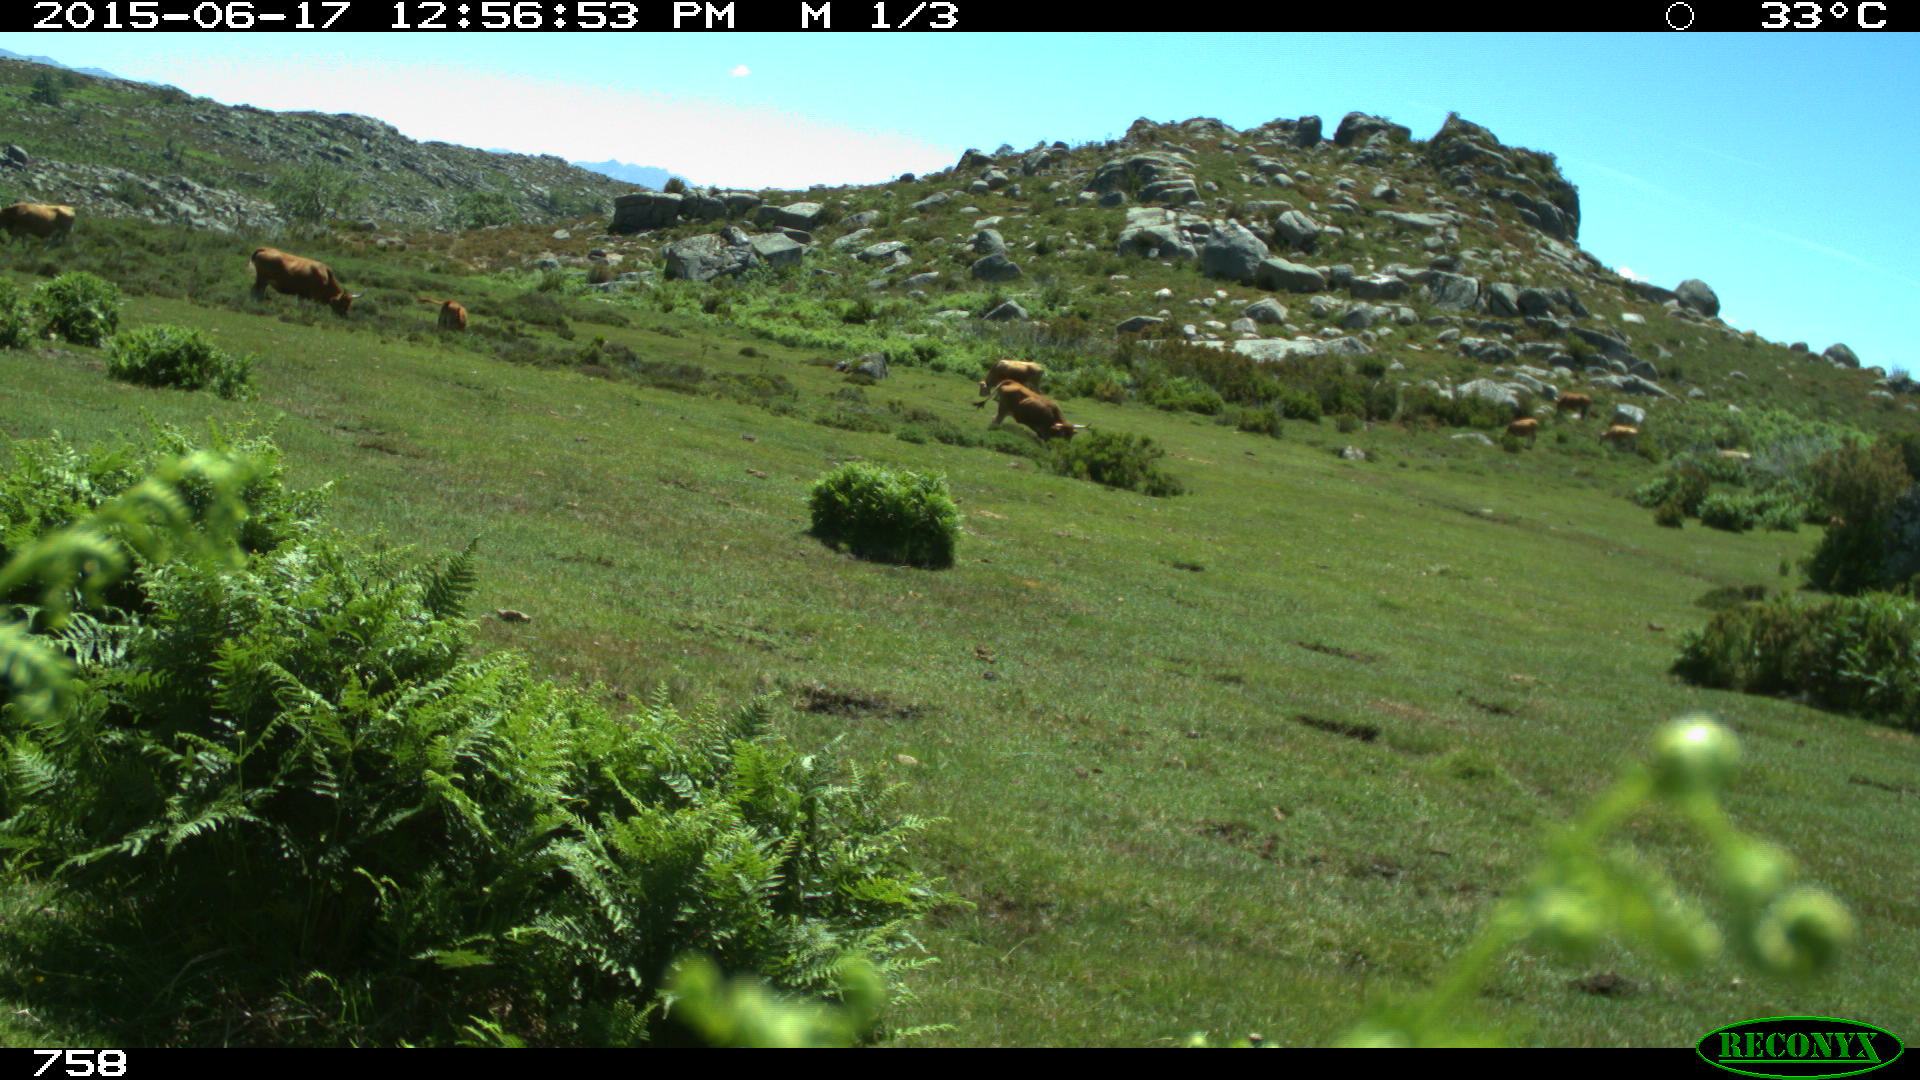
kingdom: Animalia
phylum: Chordata
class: Mammalia
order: Artiodactyla
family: Bovidae
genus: Bos
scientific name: Bos taurus
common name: Domesticated cattle
